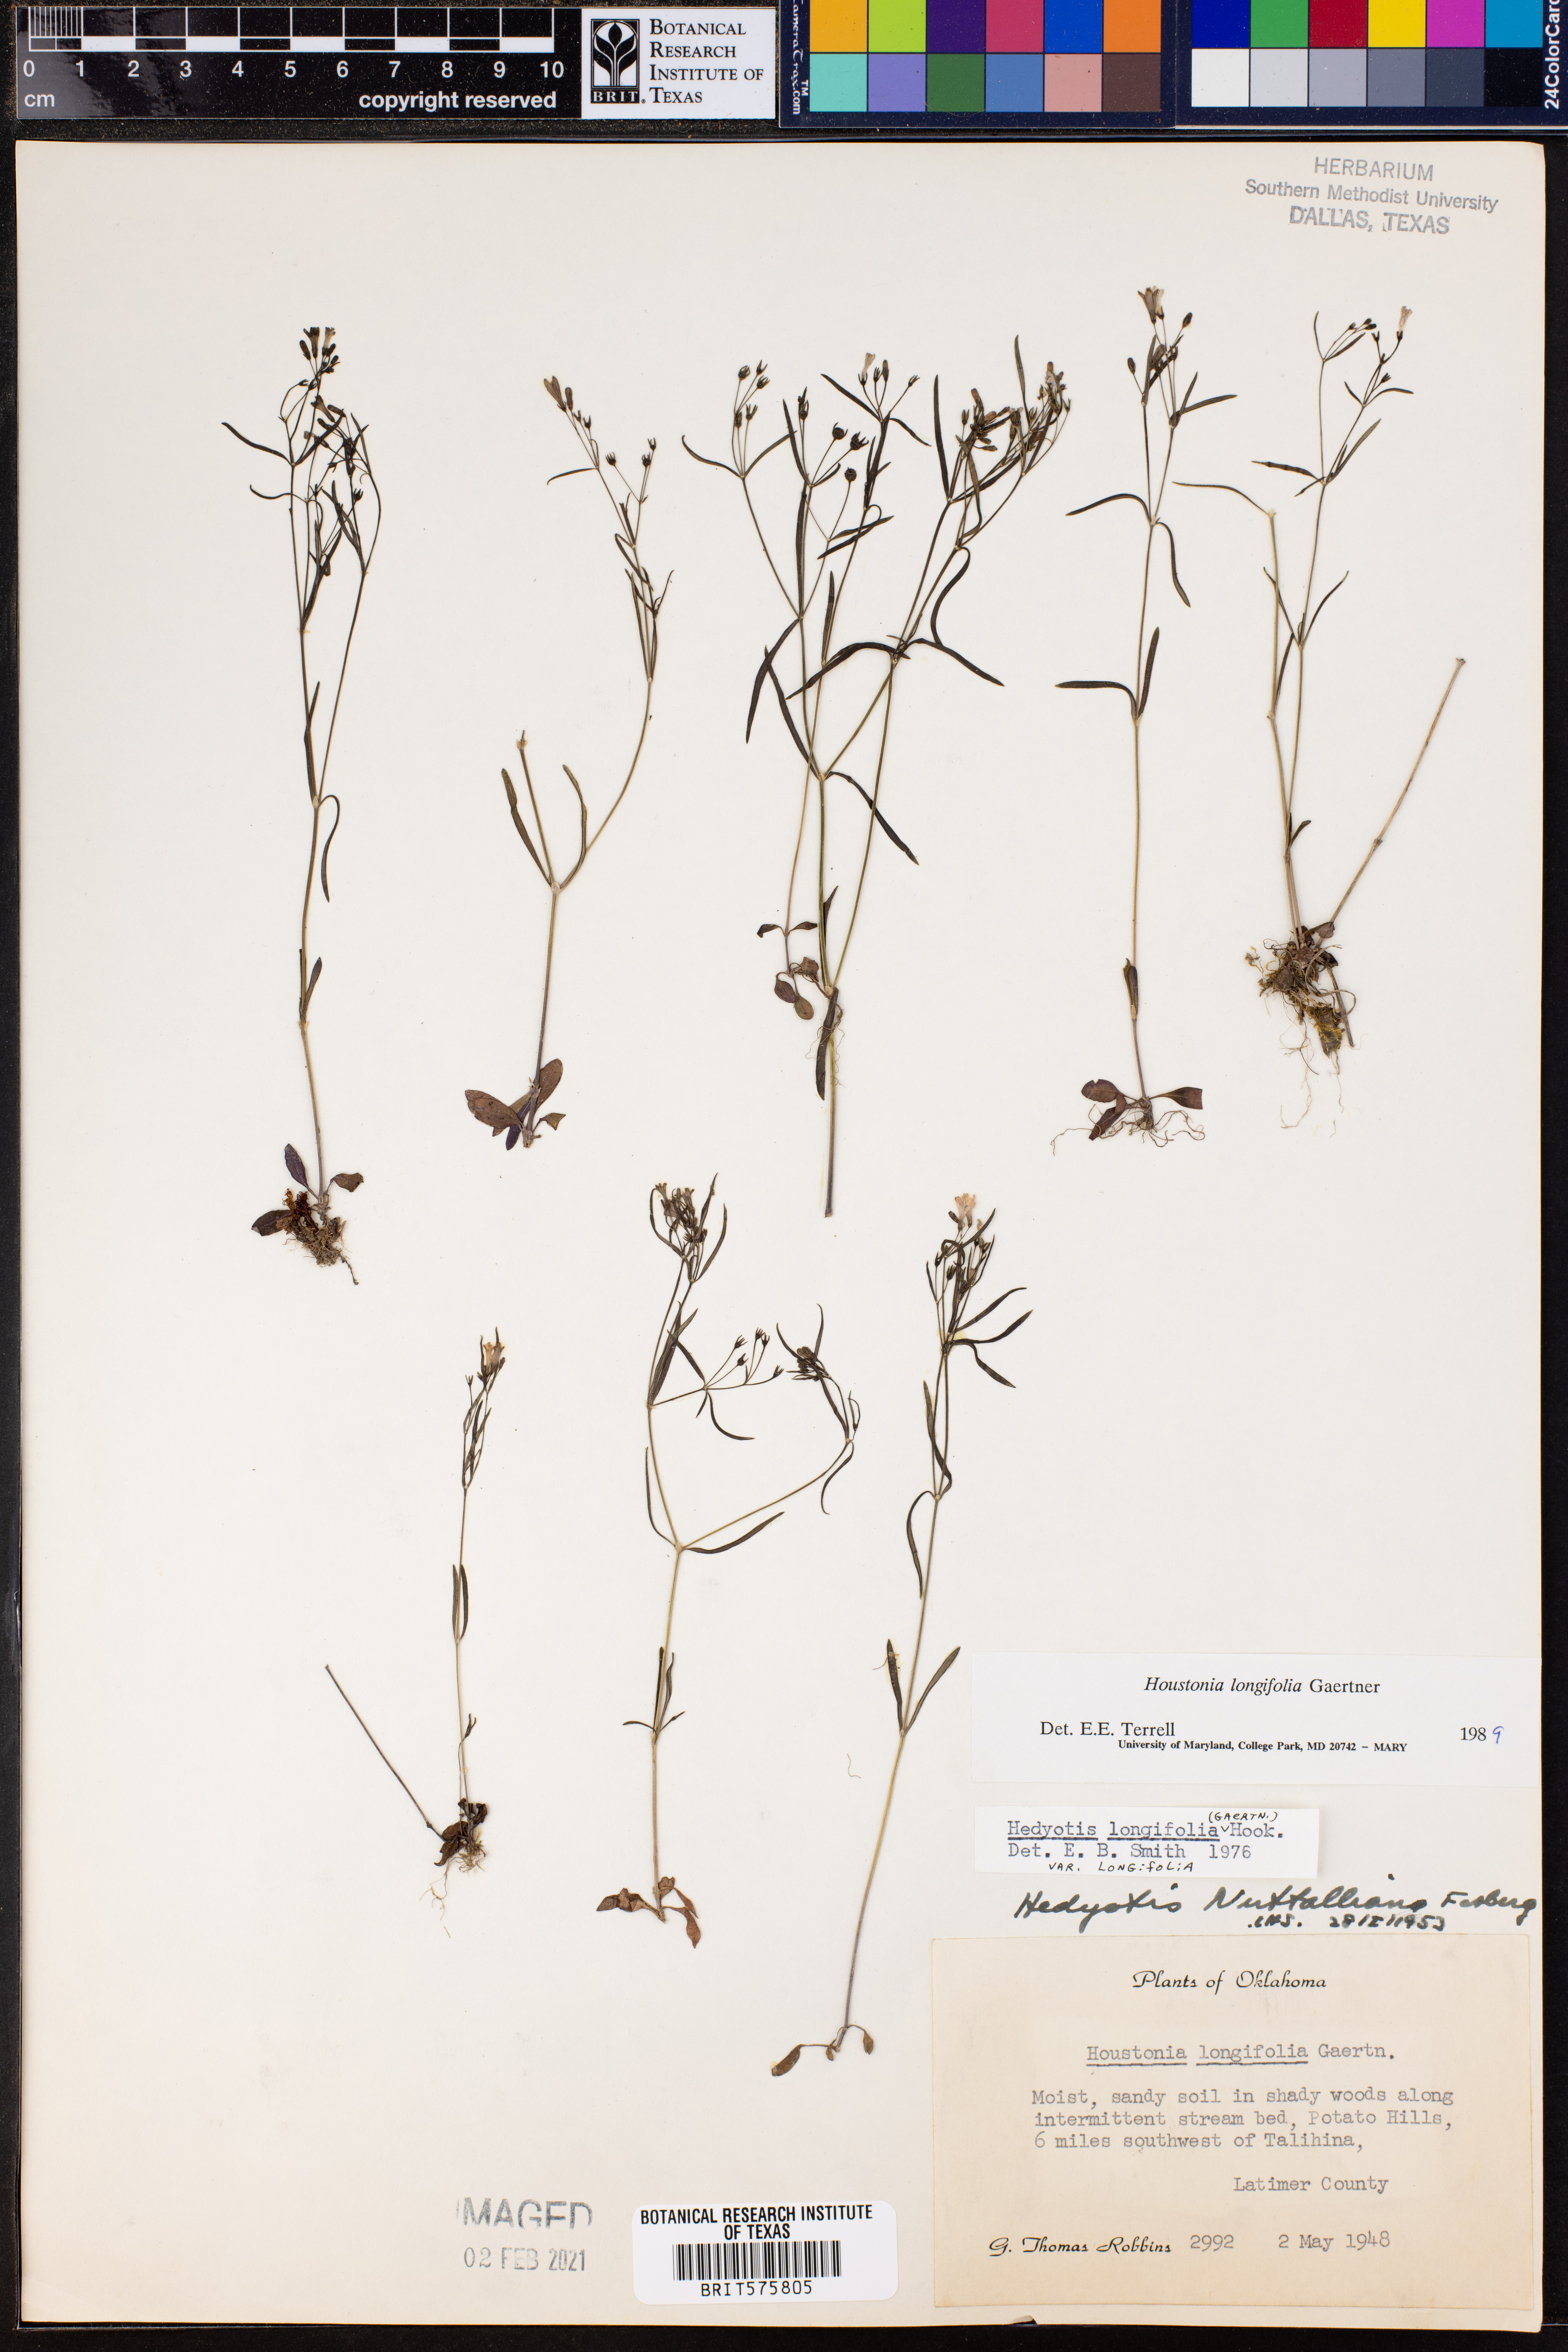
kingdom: Plantae
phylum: Tracheophyta
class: Magnoliopsida
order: Gentianales
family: Rubiaceae
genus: Houstonia
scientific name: Houstonia longifolia
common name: Long-leaved bluets
